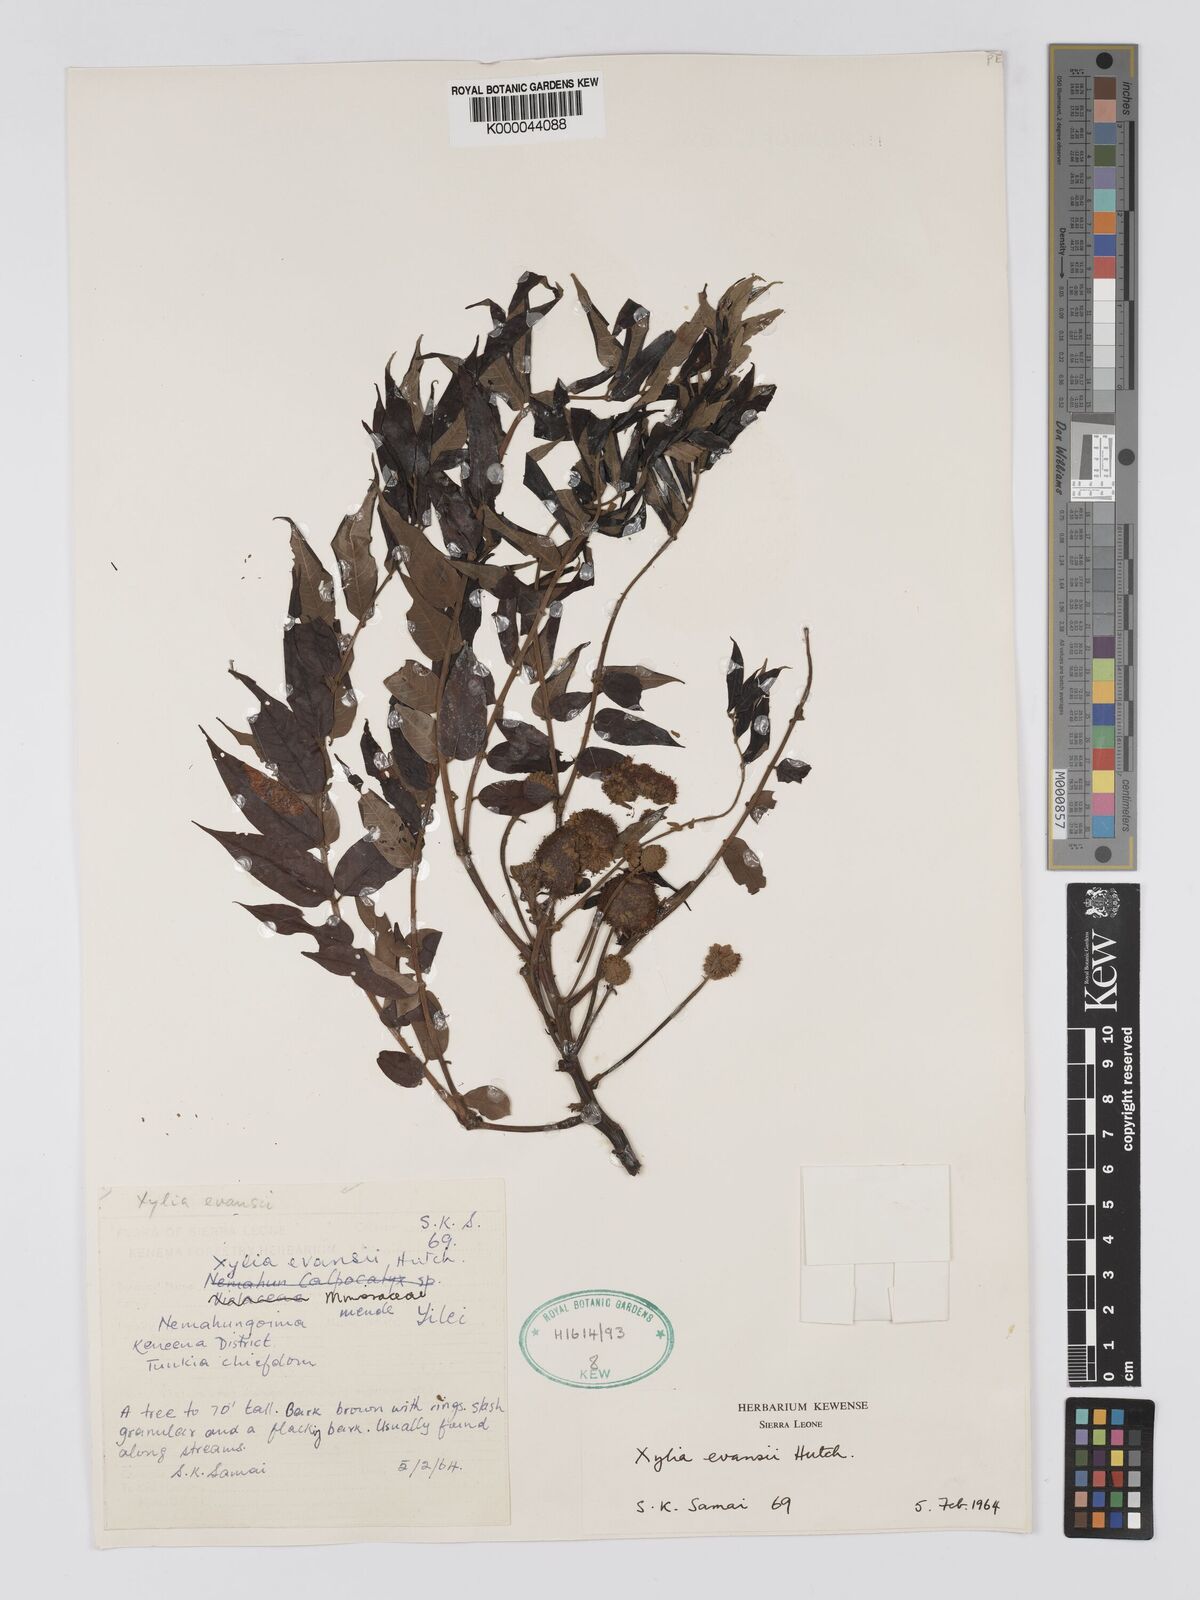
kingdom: Plantae
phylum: Tracheophyta
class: Magnoliopsida
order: Fabales
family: Fabaceae
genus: Xylia
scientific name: Xylia evansii
